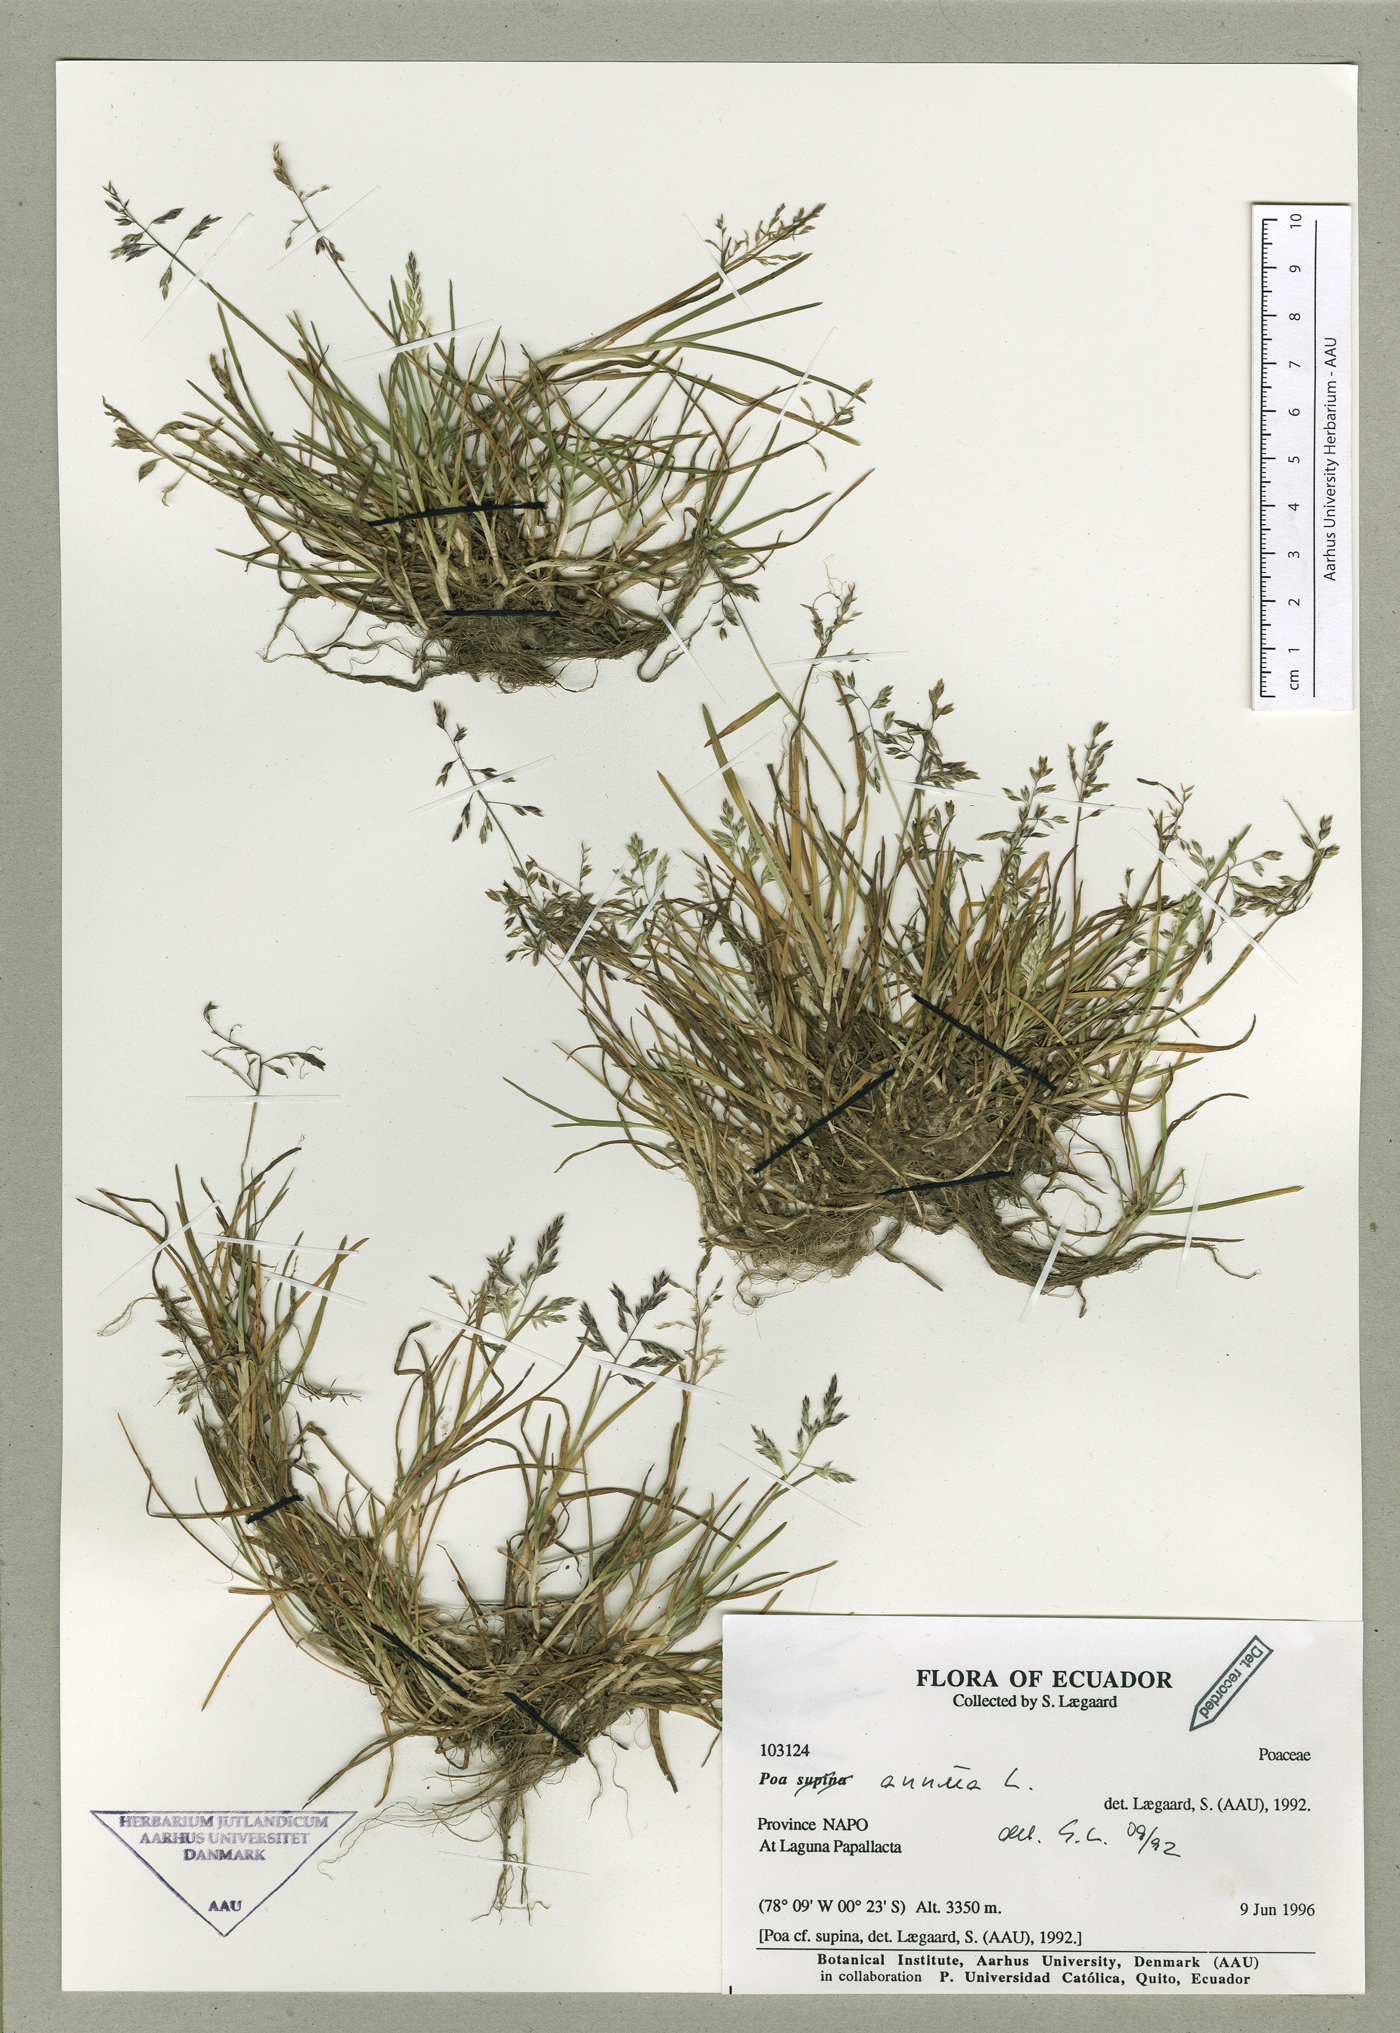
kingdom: Plantae
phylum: Tracheophyta
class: Liliopsida
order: Poales
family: Poaceae
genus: Poa
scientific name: Poa annua
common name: Annual bluegrass
